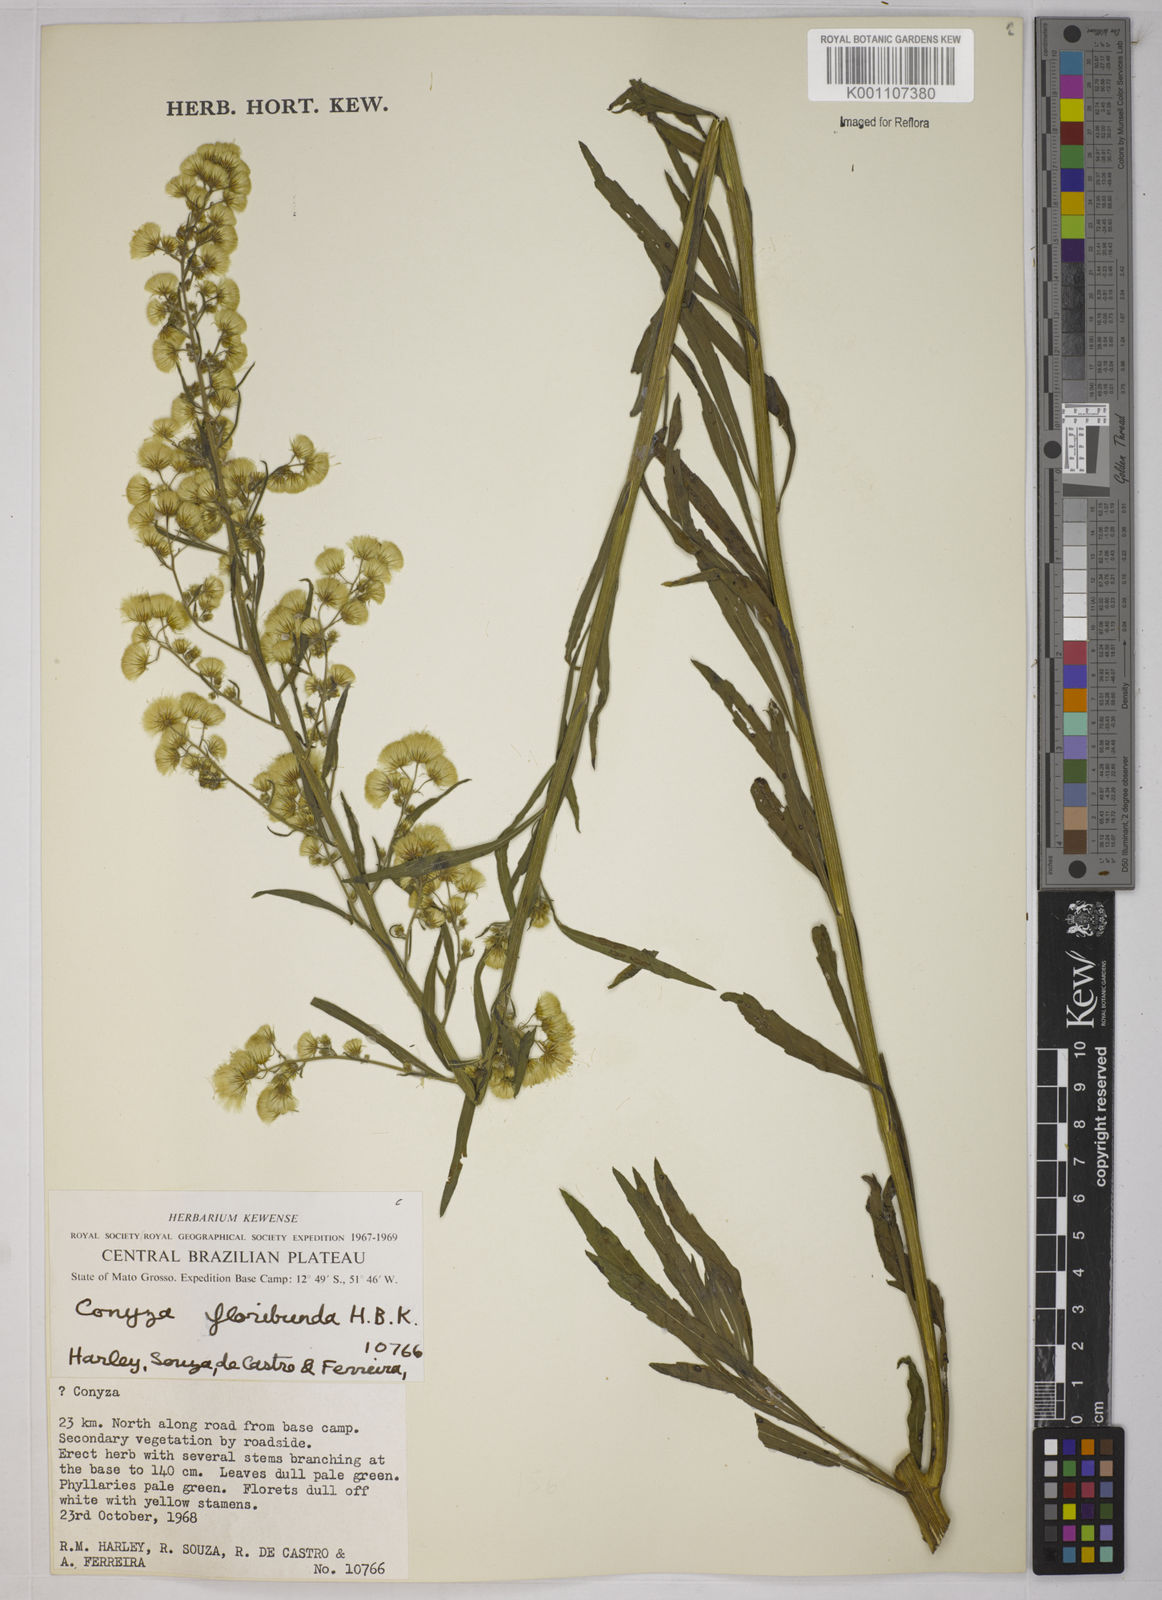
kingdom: Plantae
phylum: Tracheophyta
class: Magnoliopsida
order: Asterales
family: Asteraceae
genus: Erigeron
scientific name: Erigeron sumatrensis
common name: Daisy
